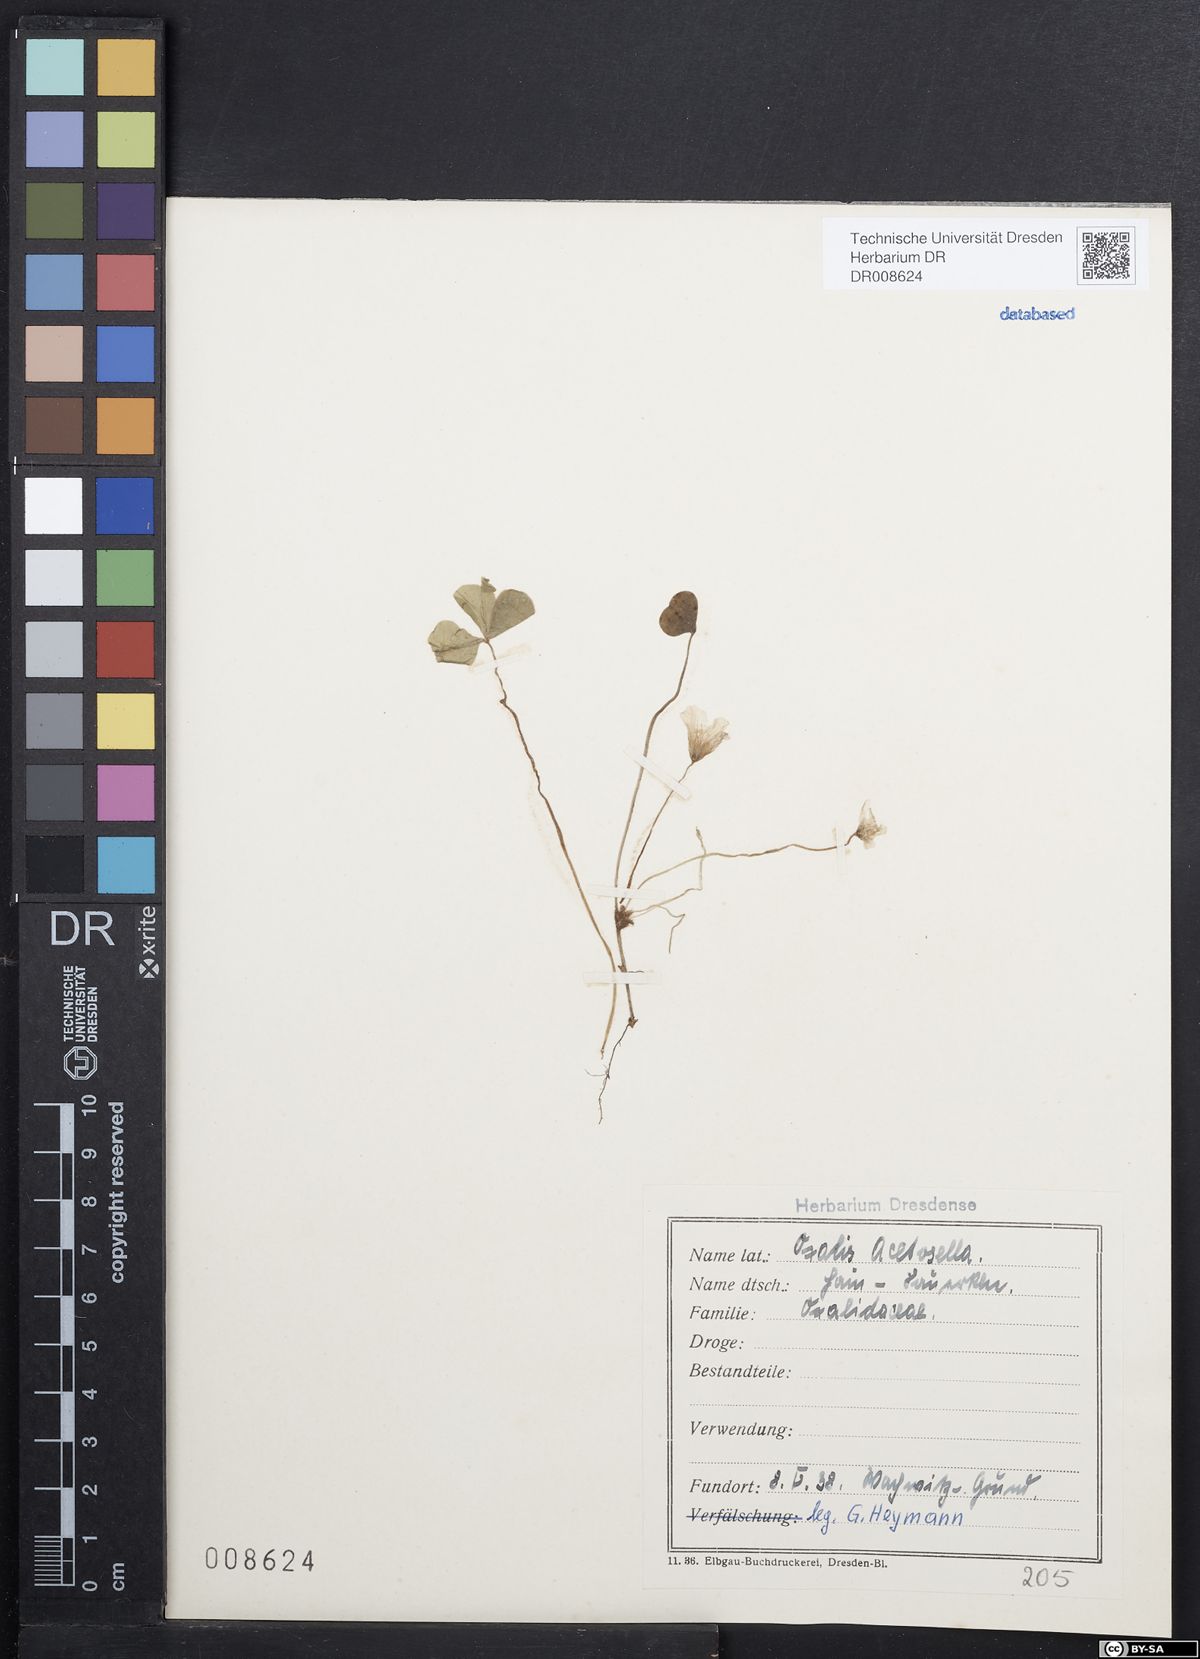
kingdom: Plantae
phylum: Tracheophyta
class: Magnoliopsida
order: Oxalidales
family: Oxalidaceae
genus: Oxalis
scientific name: Oxalis acetosella
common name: Wood-sorrel
